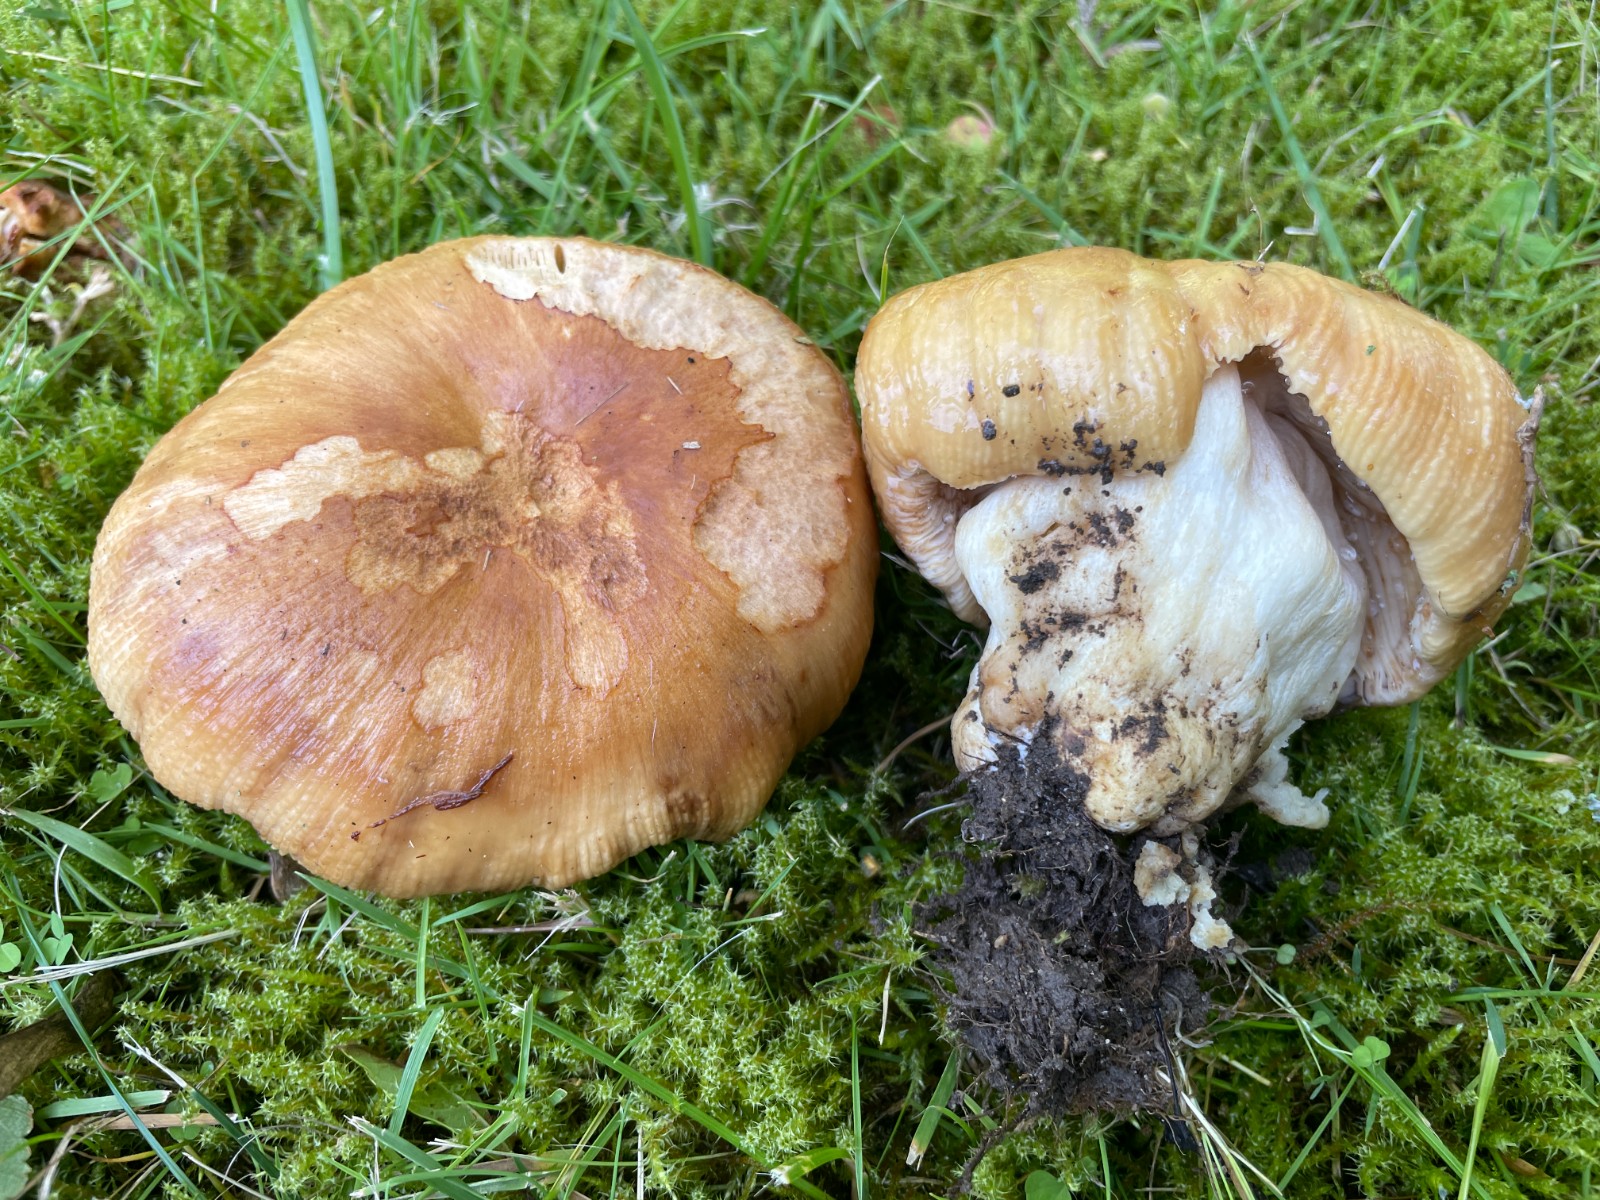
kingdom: Fungi
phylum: Basidiomycota
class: Agaricomycetes
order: Russulales
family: Russulaceae
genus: Russula
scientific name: Russula subfoetens
